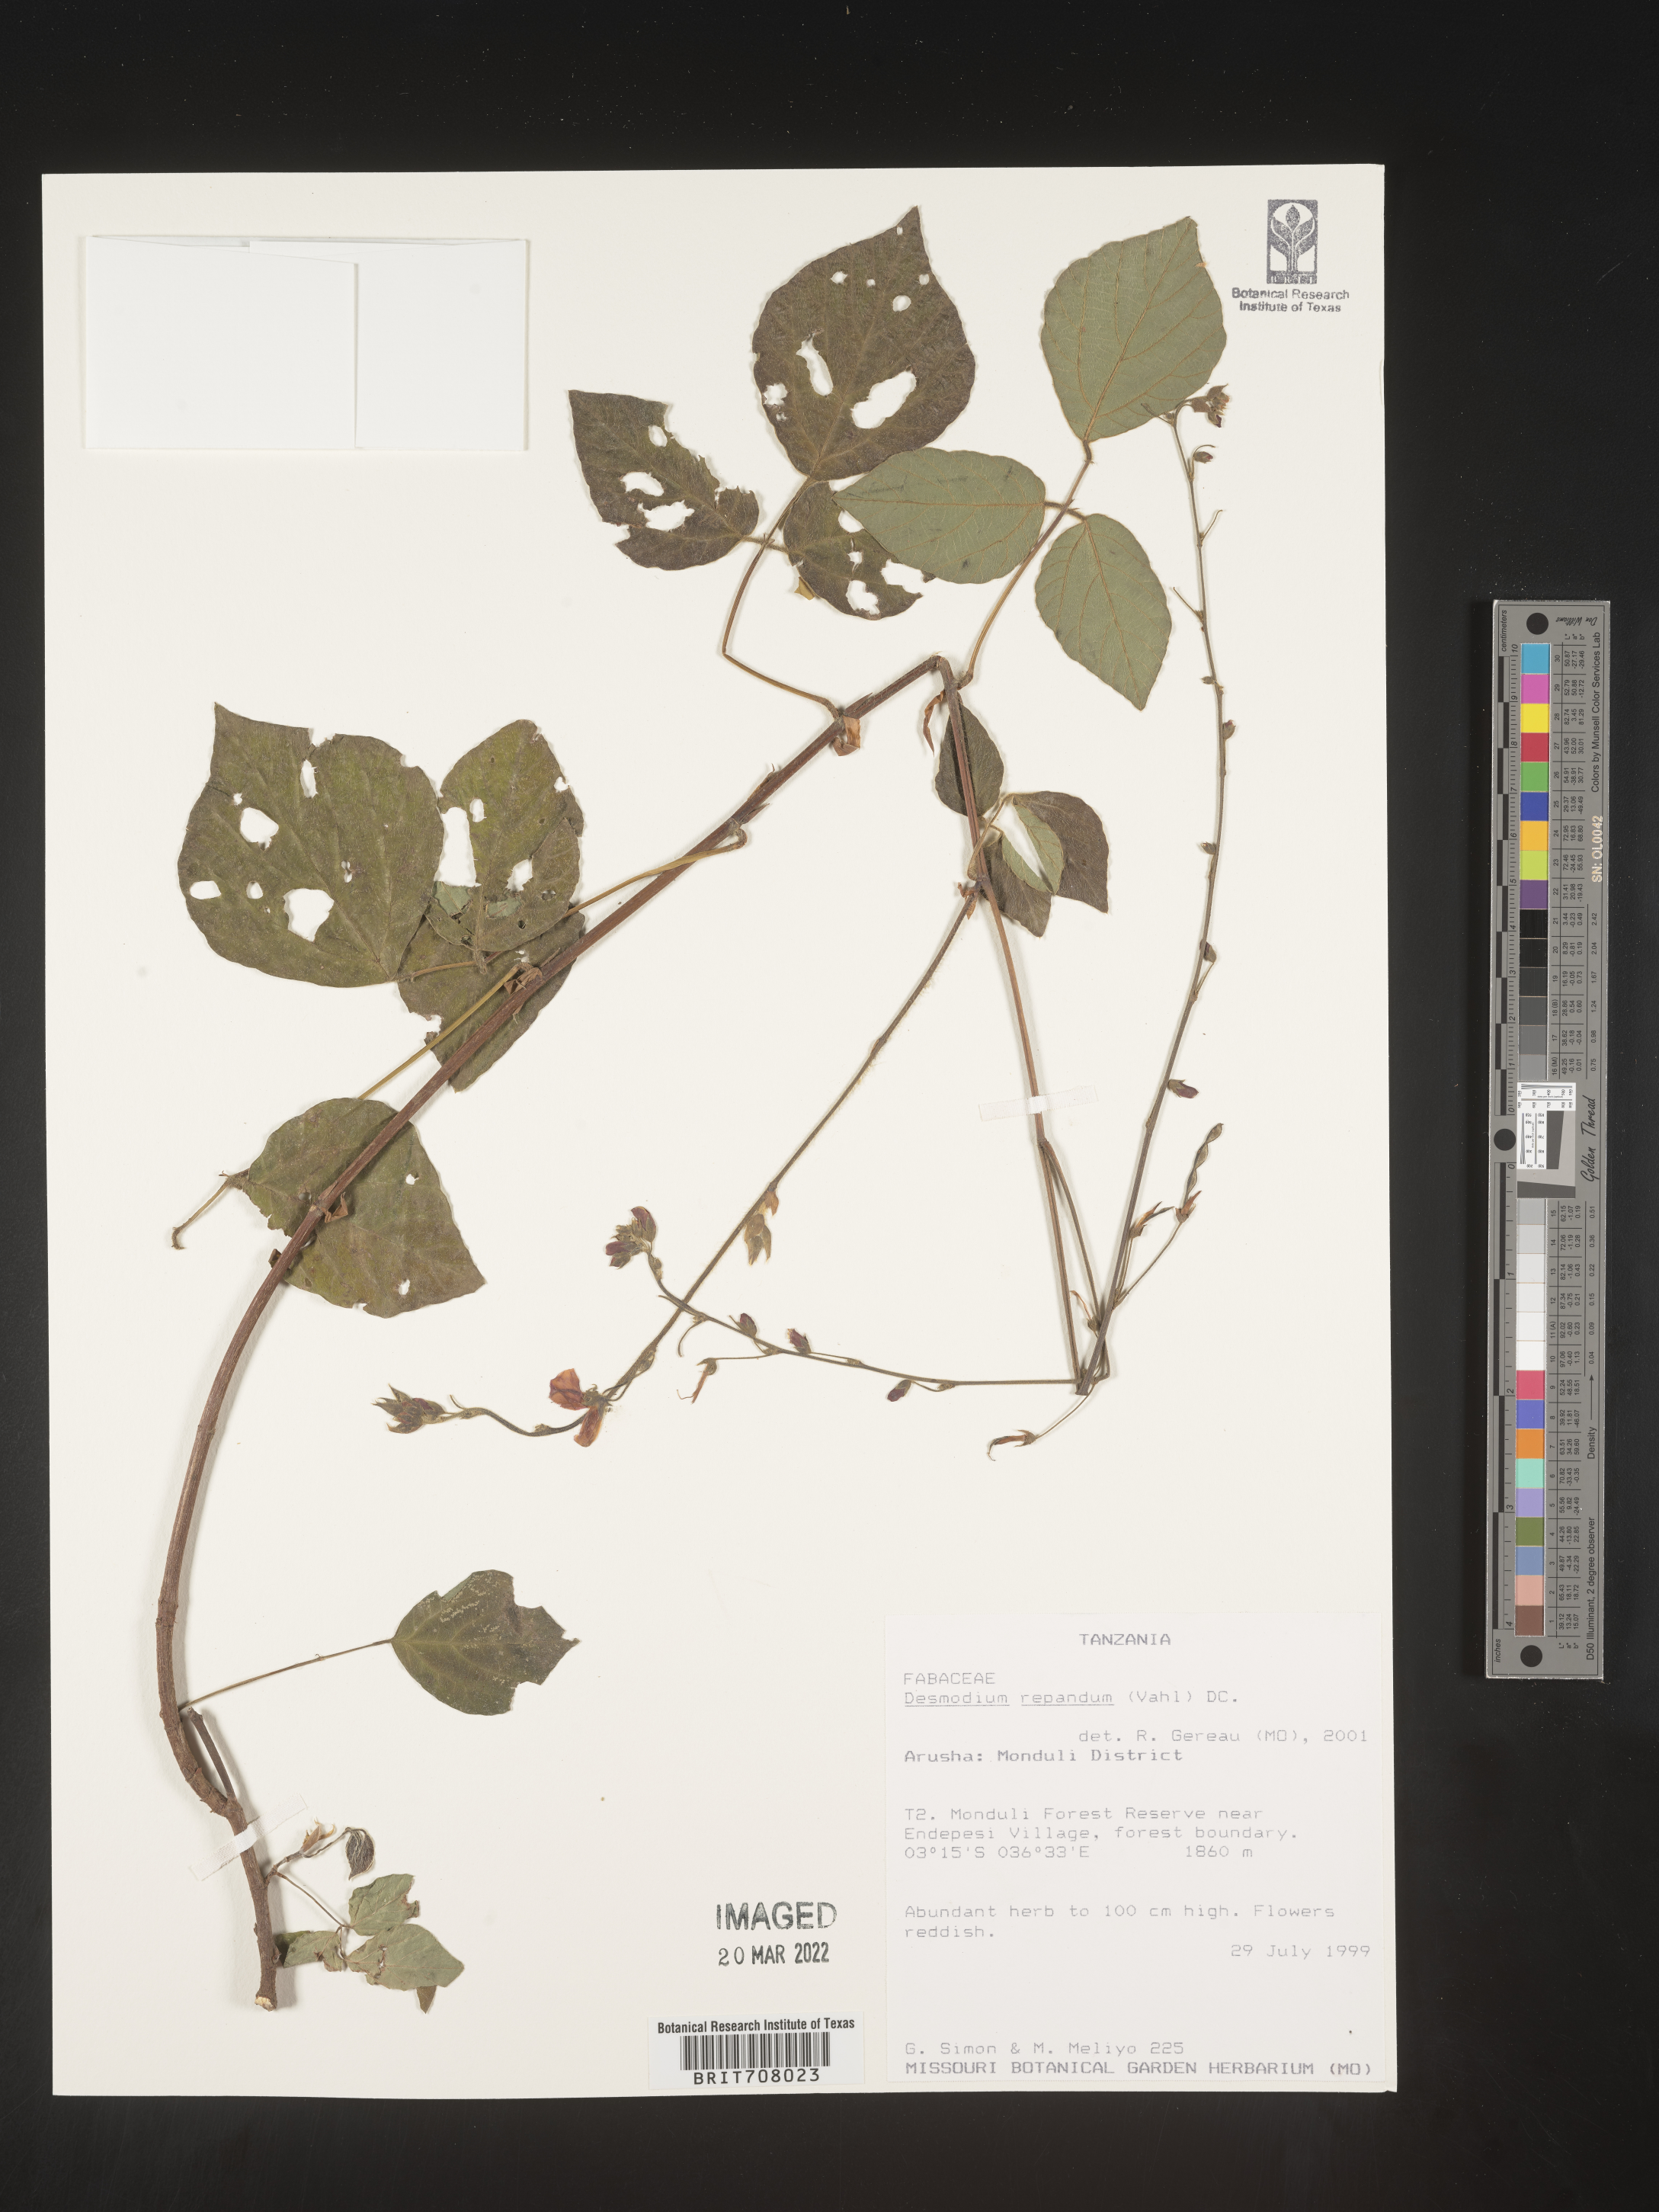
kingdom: Plantae
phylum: Tracheophyta
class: Magnoliopsida
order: Fabales
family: Fabaceae
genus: Desmodium
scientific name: Desmodium
